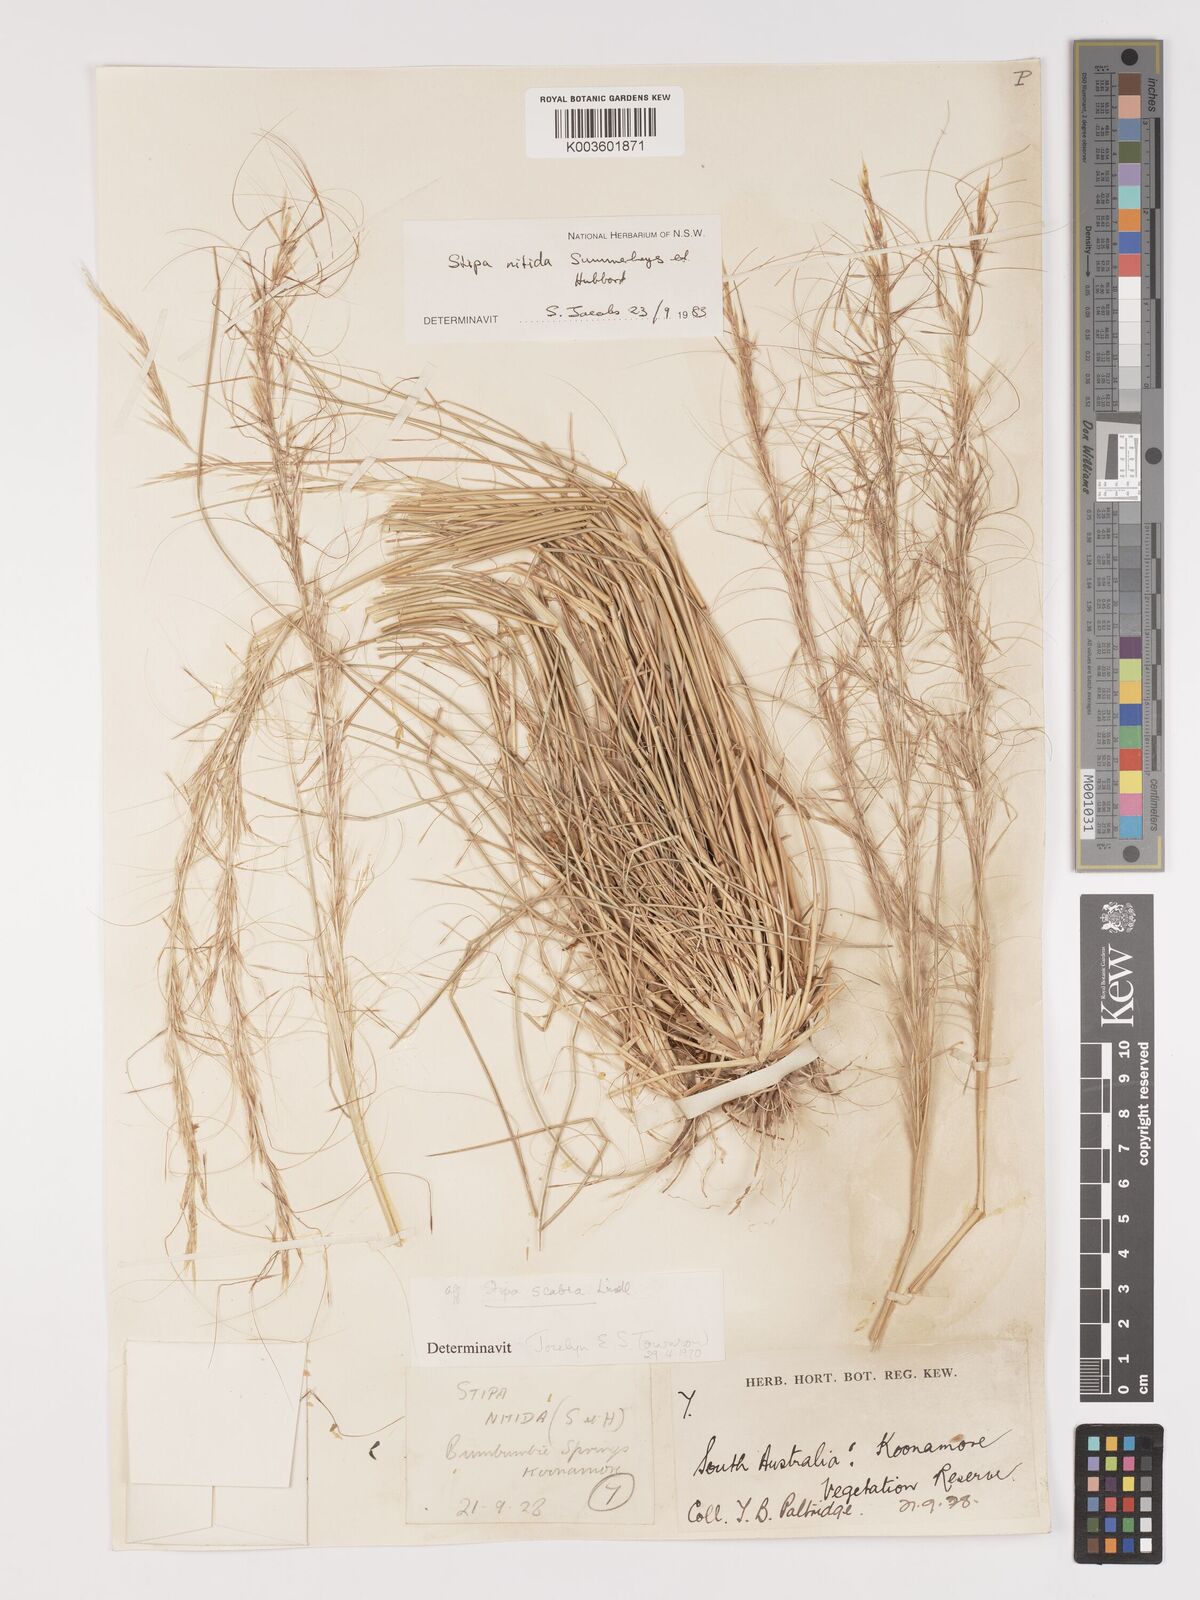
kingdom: Plantae
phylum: Tracheophyta
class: Liliopsida
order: Poales
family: Poaceae
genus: Austrostipa
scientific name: Austrostipa nitida
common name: Balcarra grass
